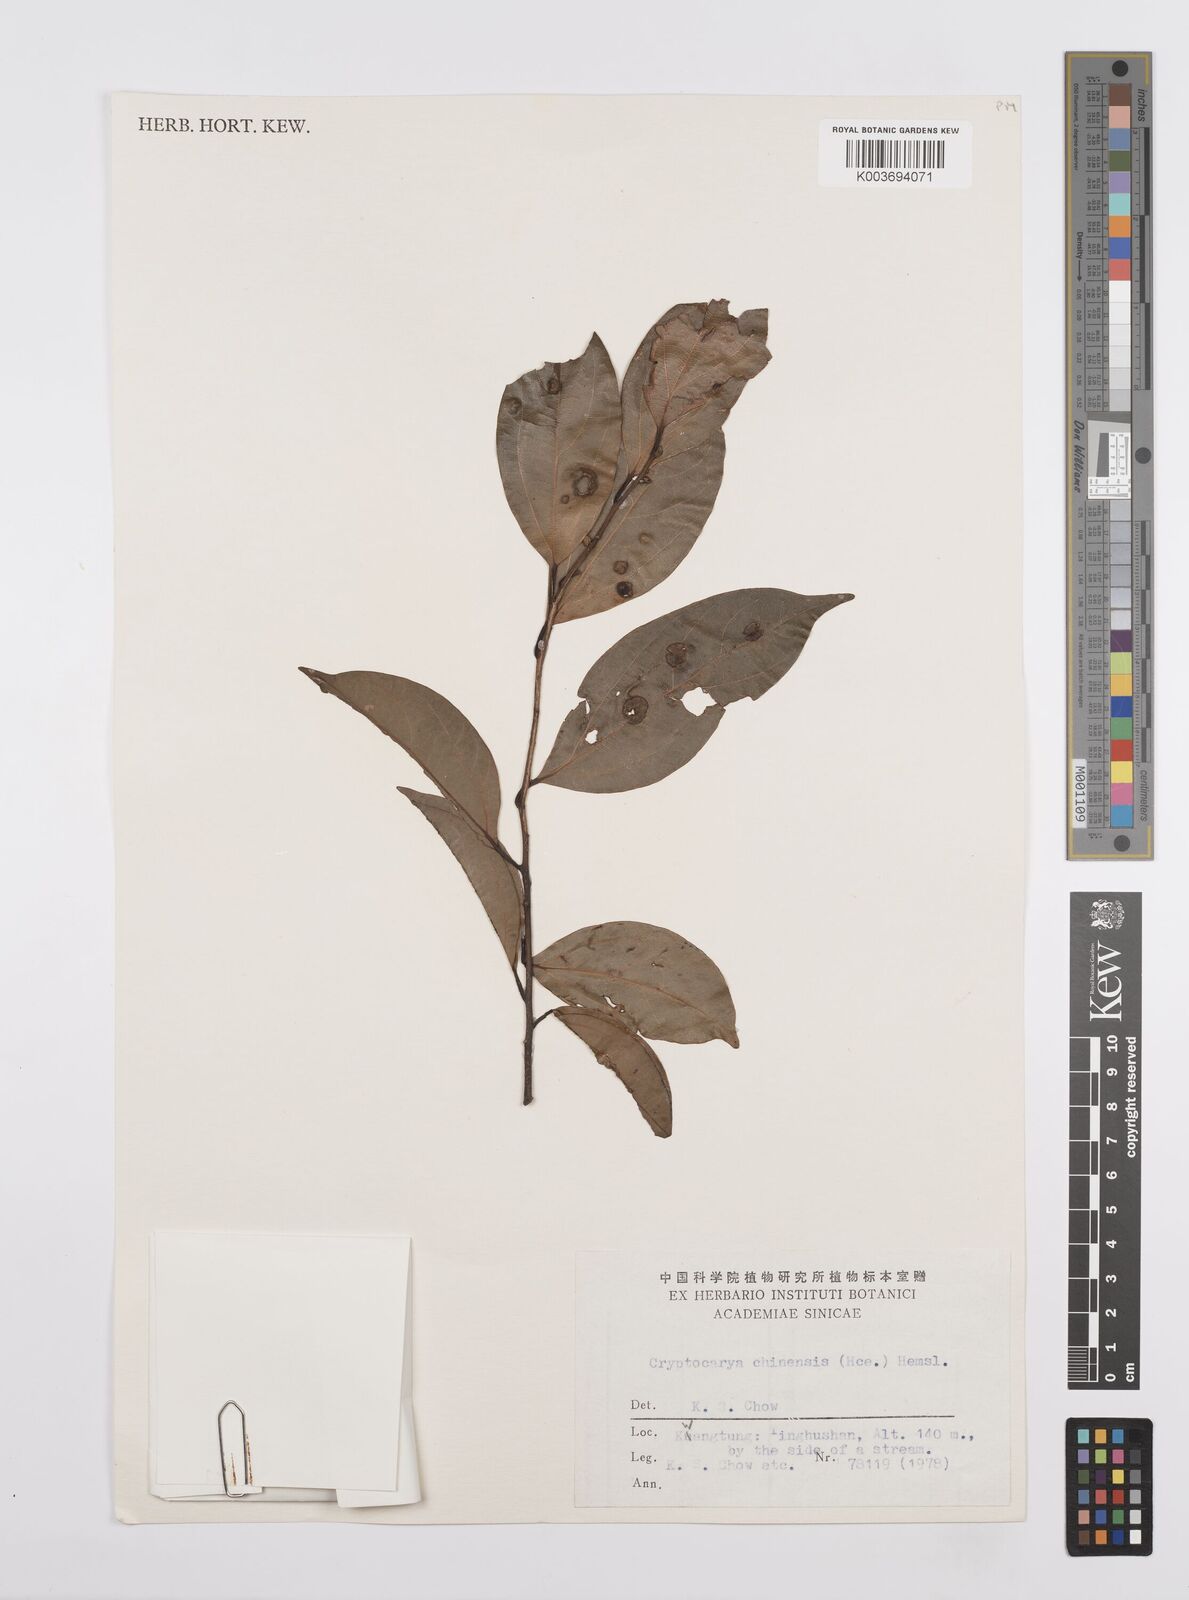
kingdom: Plantae
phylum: Tracheophyta
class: Magnoliopsida
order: Laurales
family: Lauraceae
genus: Cryptocarya
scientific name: Cryptocarya chinensis
